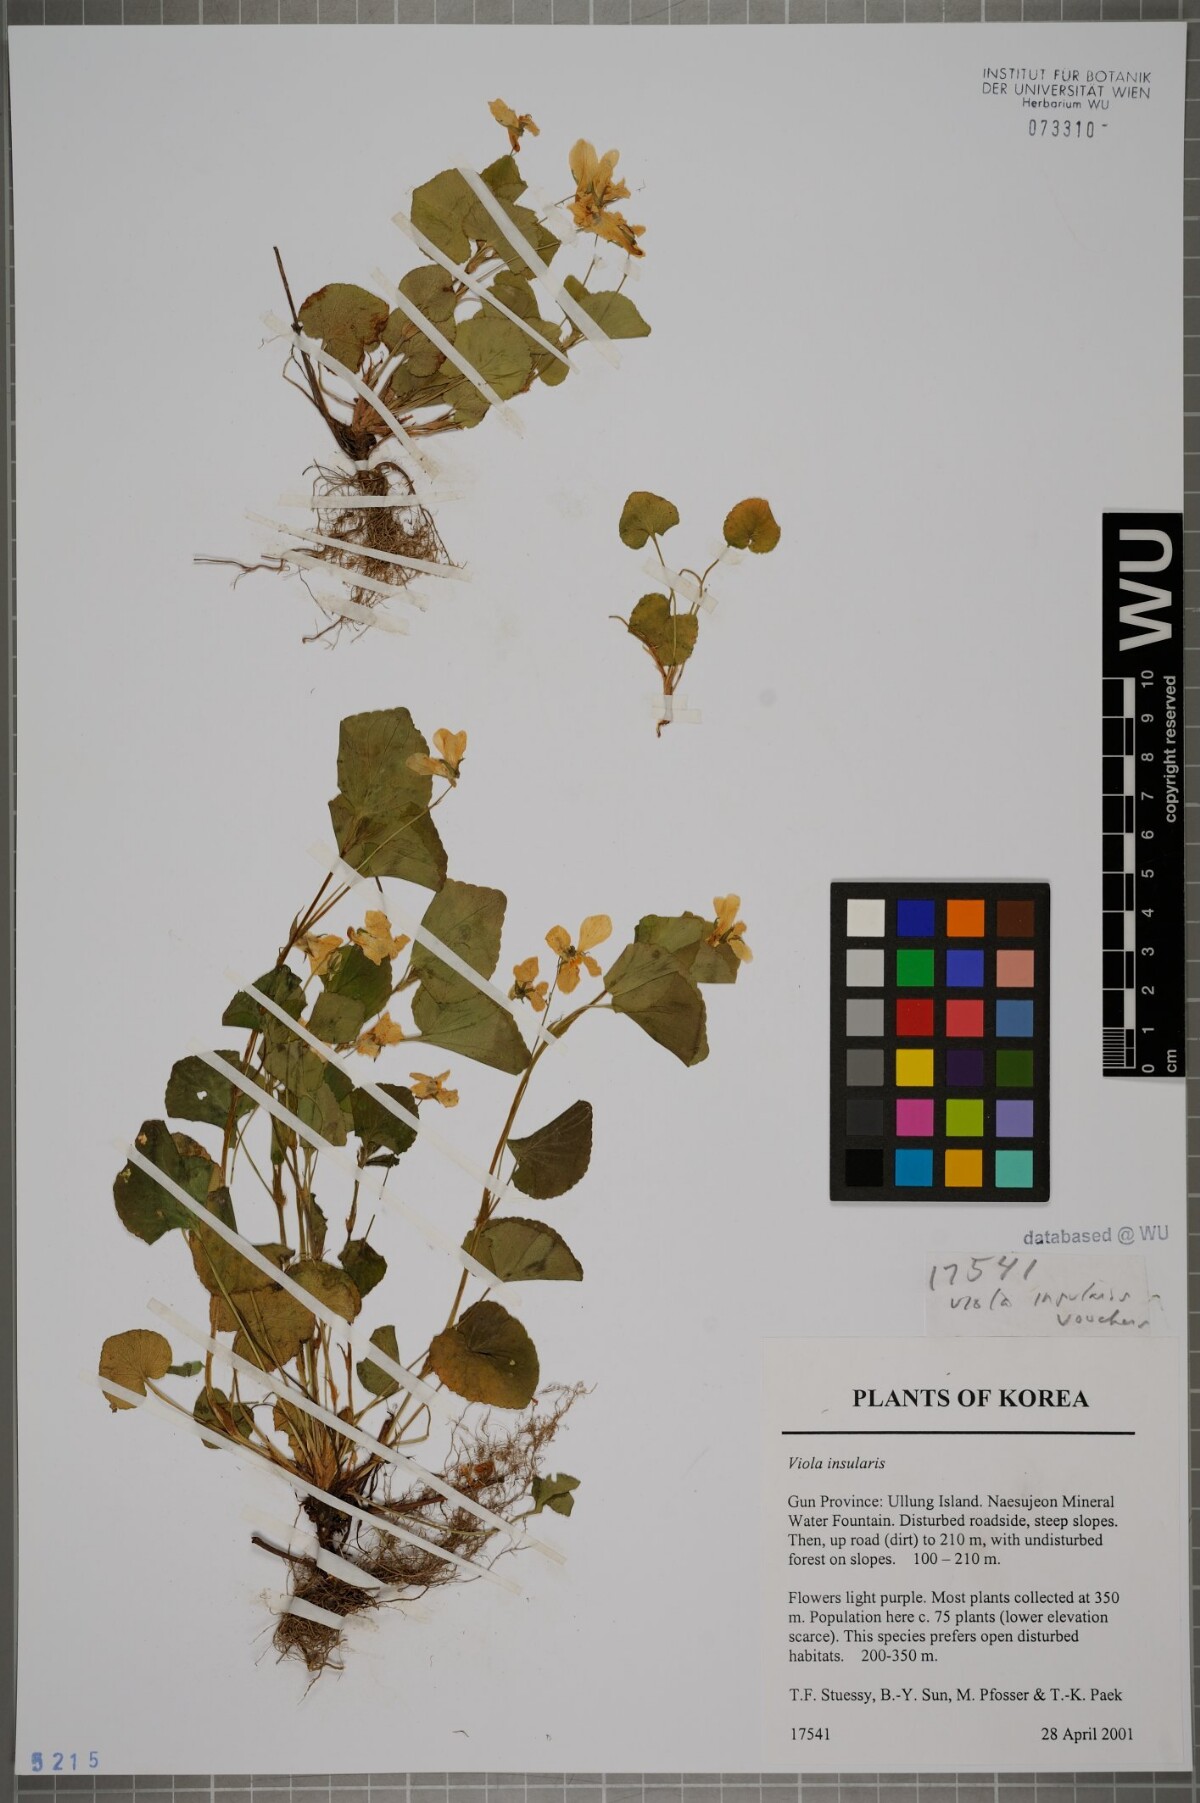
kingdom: Plantae
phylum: Tracheophyta
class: Magnoliopsida
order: Malpighiales
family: Violaceae
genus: Viola
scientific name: Viola kusanoana
